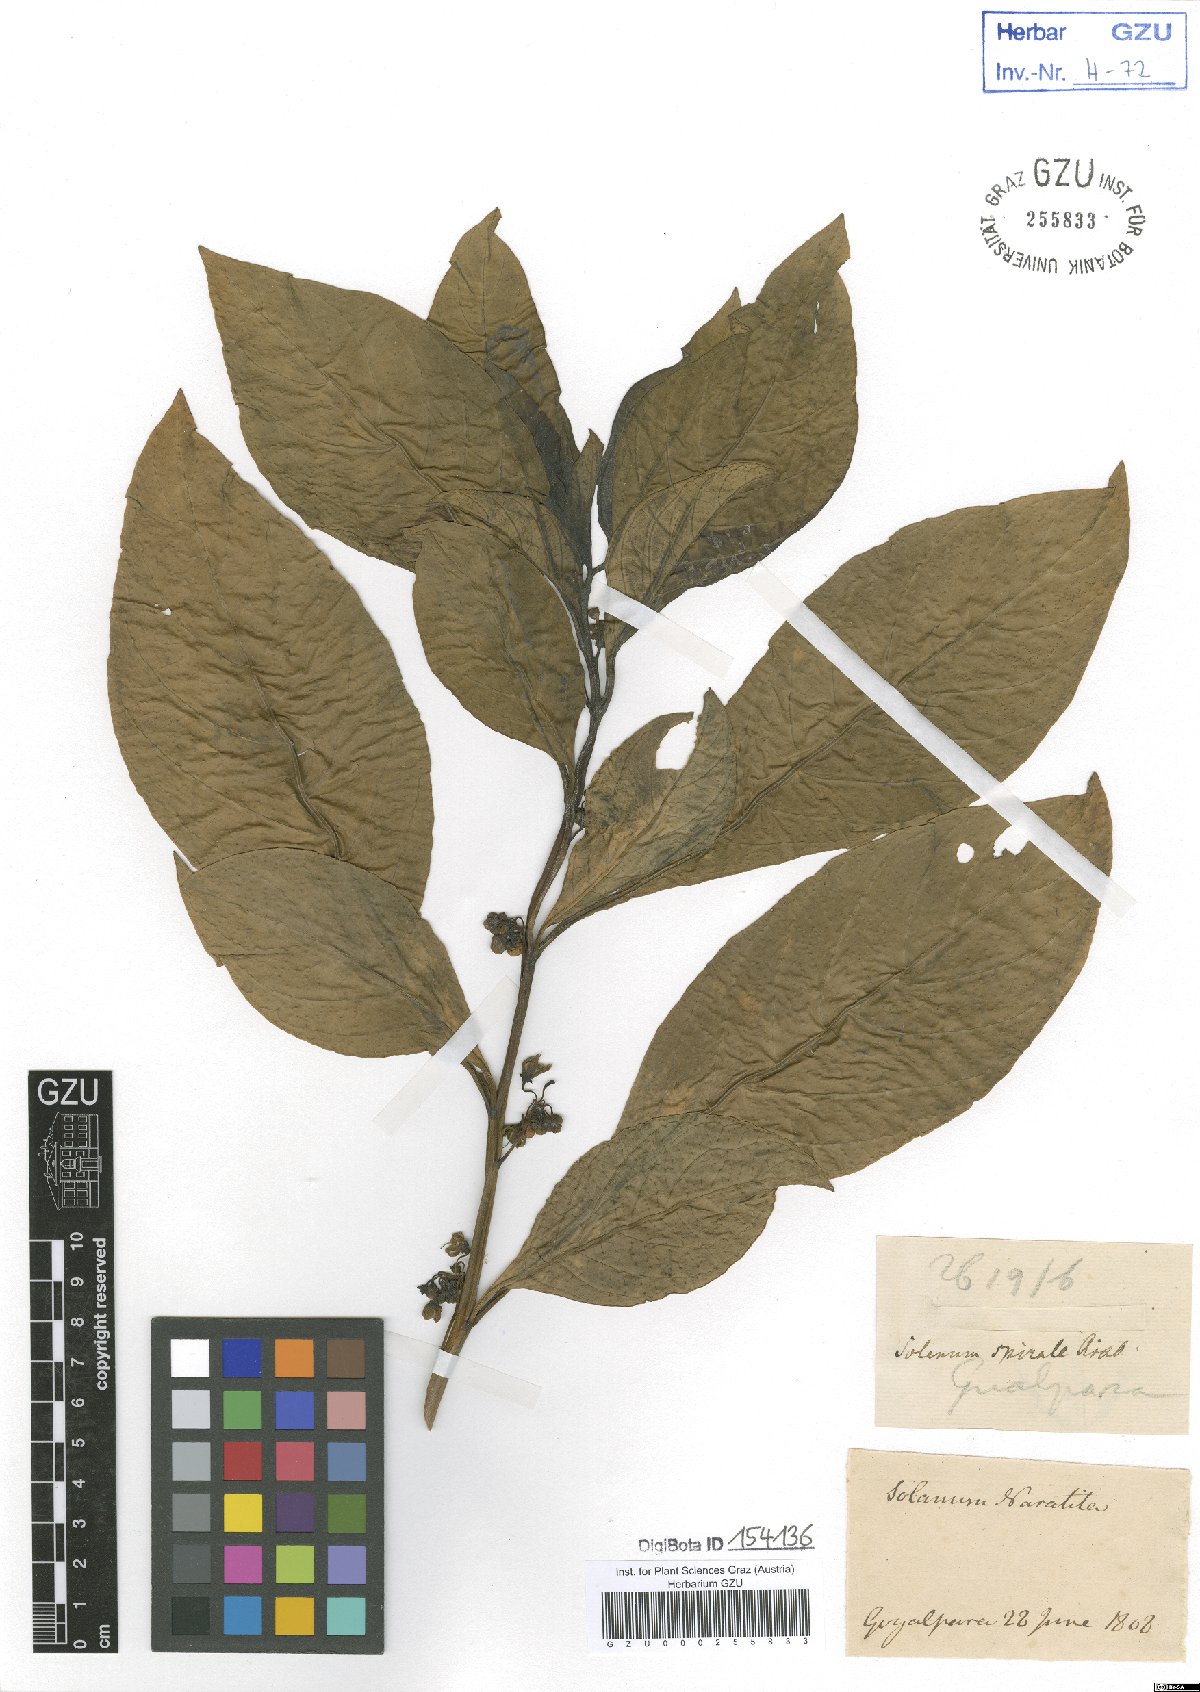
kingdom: Plantae
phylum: Tracheophyta
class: Magnoliopsida
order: Solanales
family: Solanaceae
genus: Solanum
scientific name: Solanum spirale
